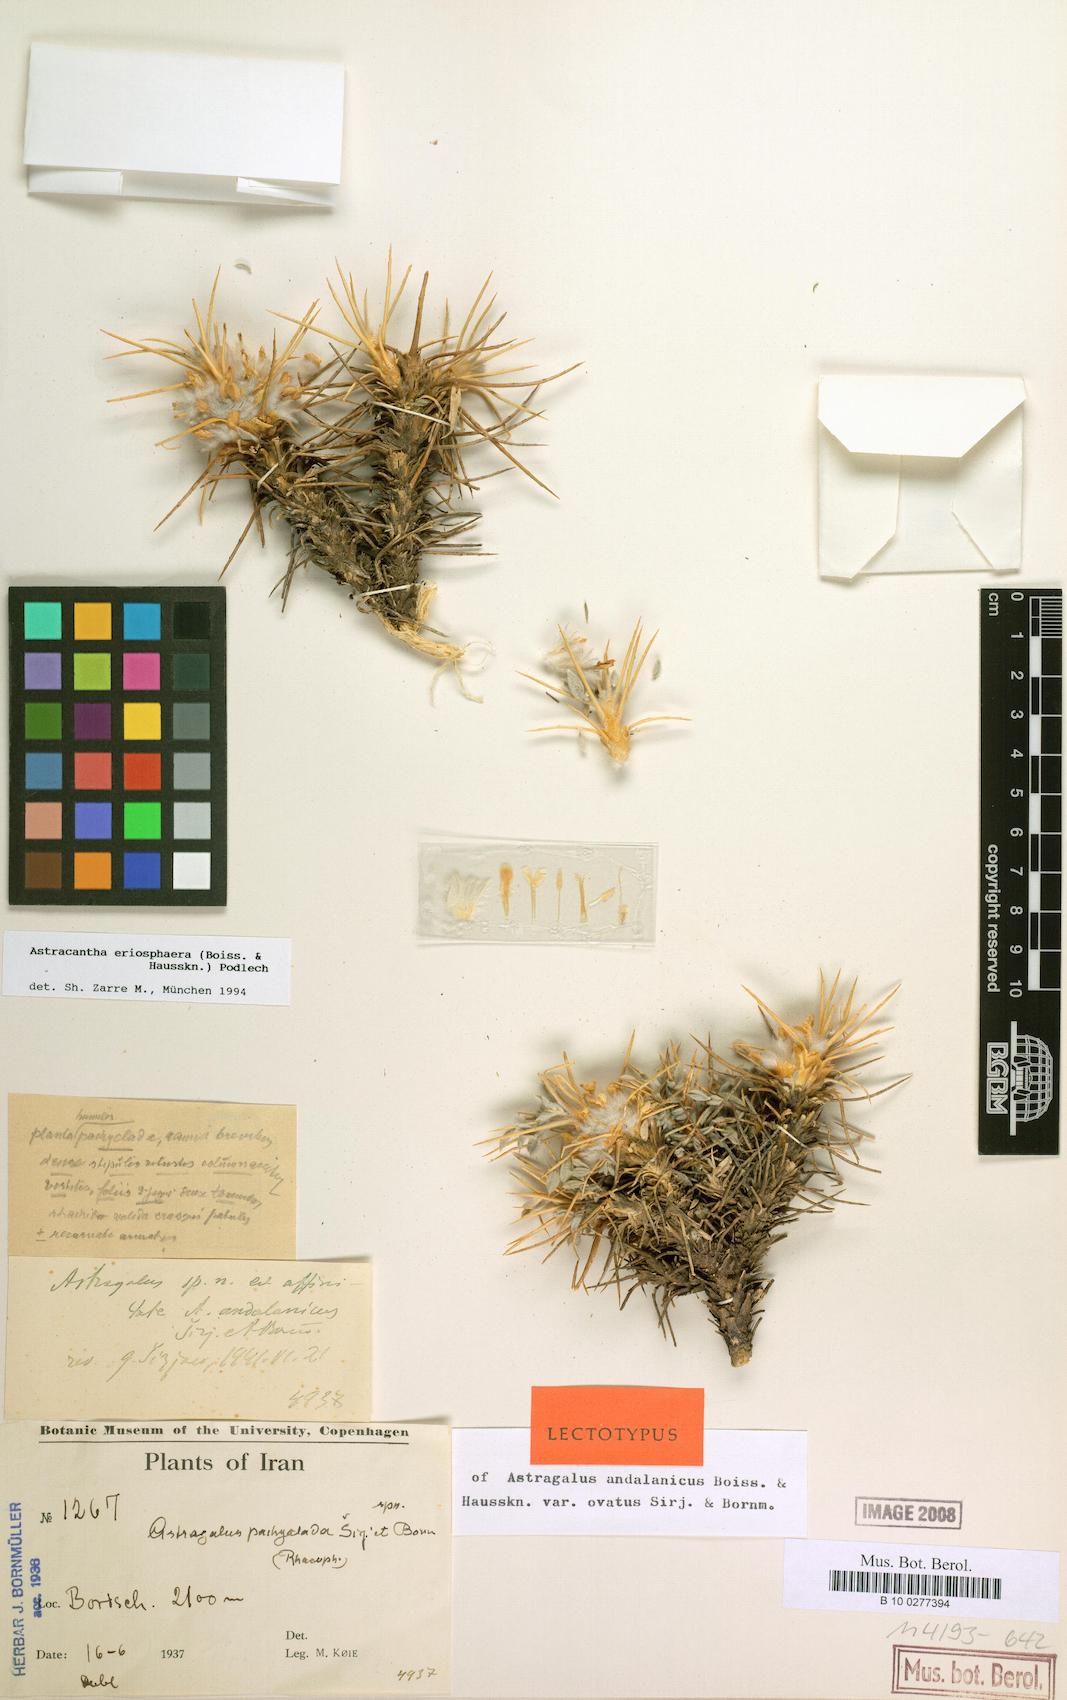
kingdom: Plantae
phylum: Tracheophyta
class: Magnoliopsida
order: Fabales
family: Fabaceae
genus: Astragalus
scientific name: Astragalus eriosphaerus
